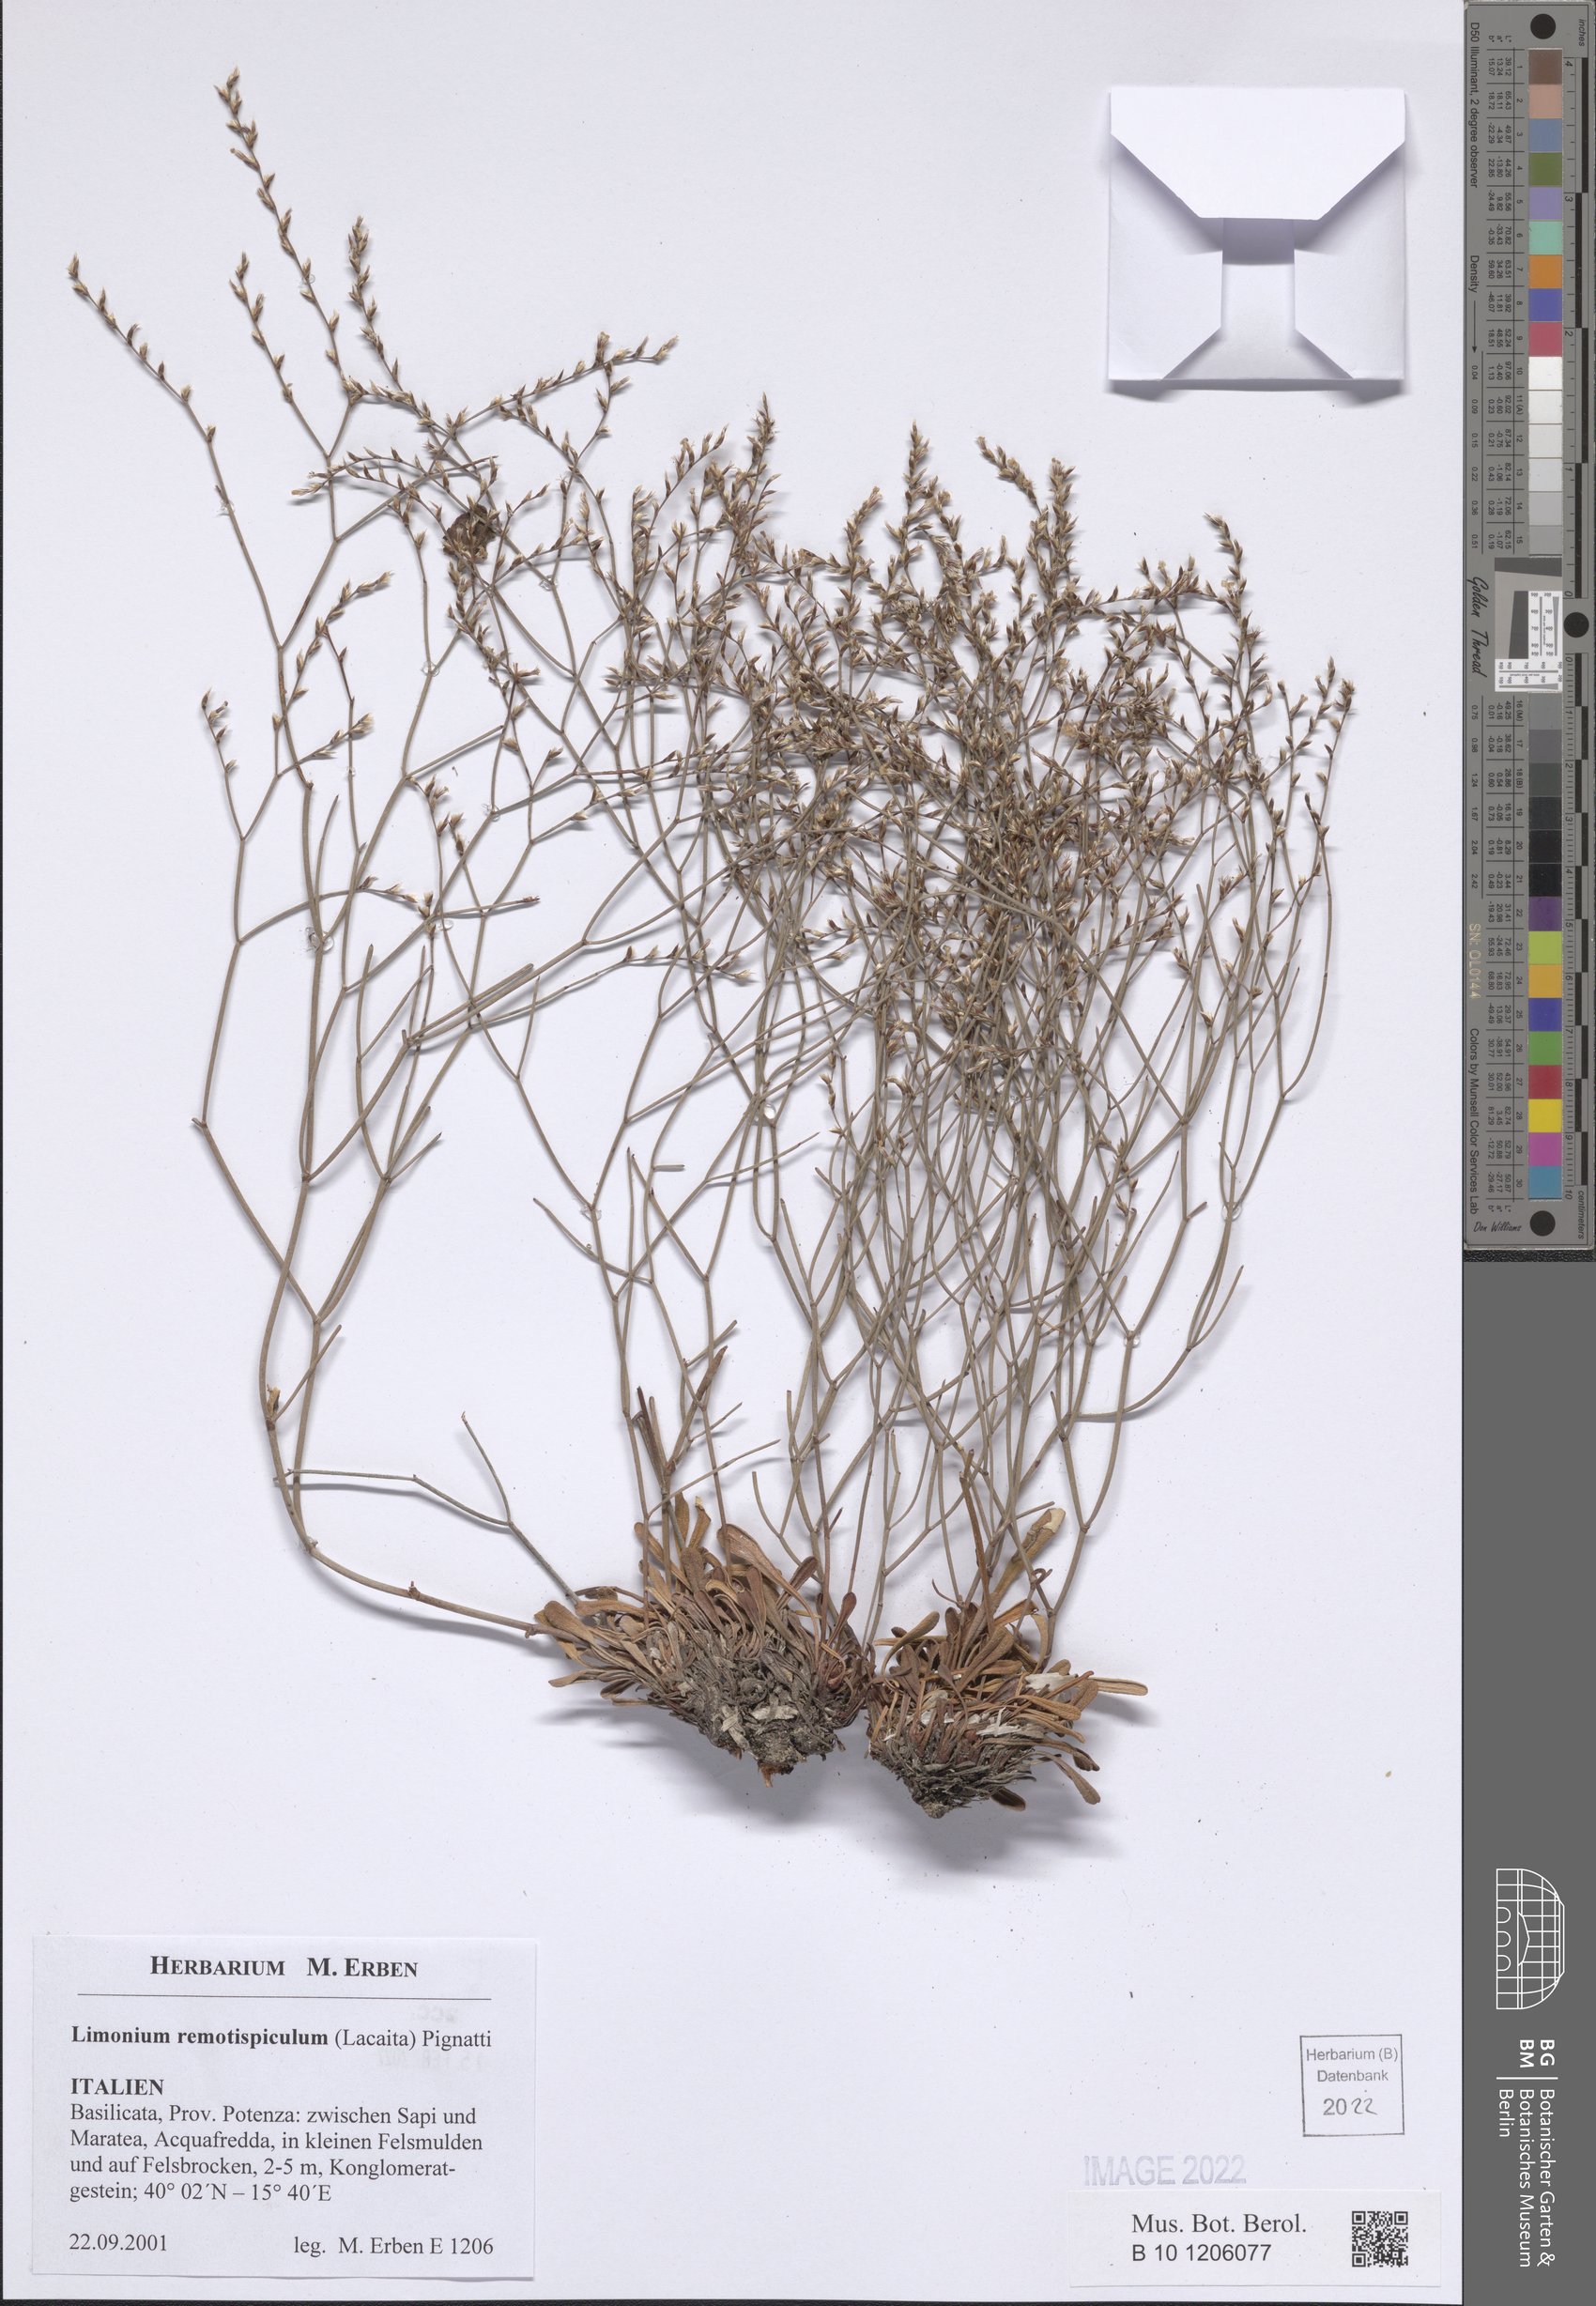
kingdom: Plantae
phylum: Tracheophyta
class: Magnoliopsida
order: Caryophyllales
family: Plumbaginaceae
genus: Limonium
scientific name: Limonium remotispiculum
